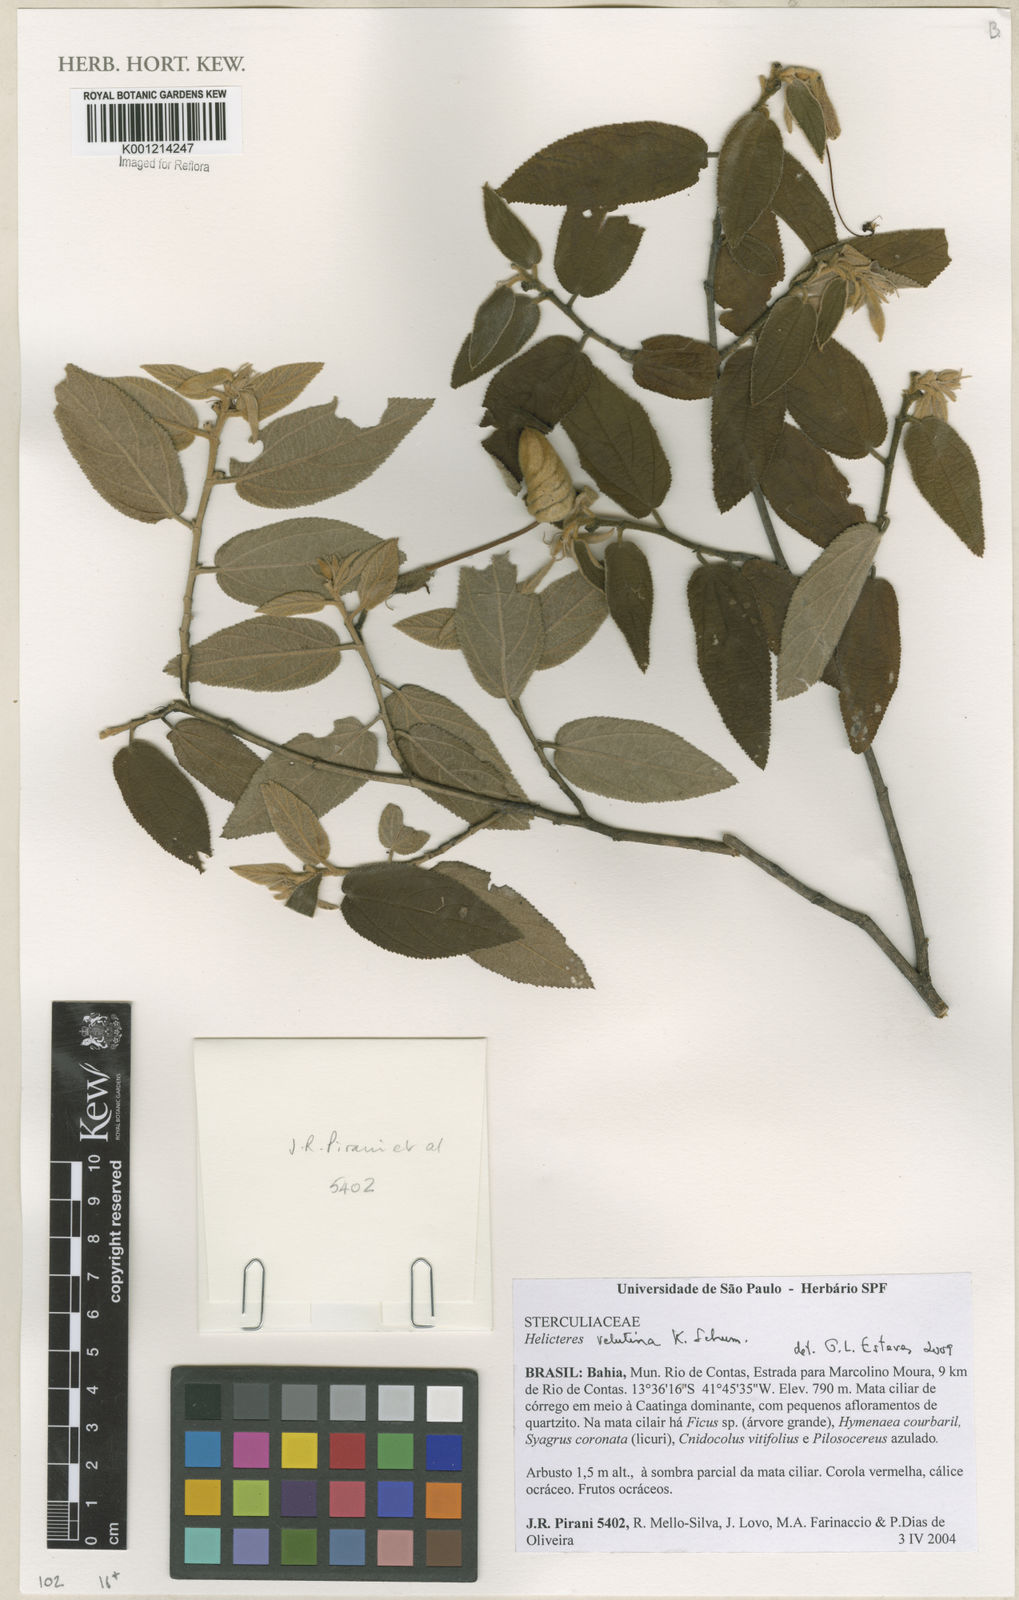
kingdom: Plantae
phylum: Tracheophyta
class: Magnoliopsida
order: Malvales
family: Malvaceae
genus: Helicteres
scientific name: Helicteres velutina
